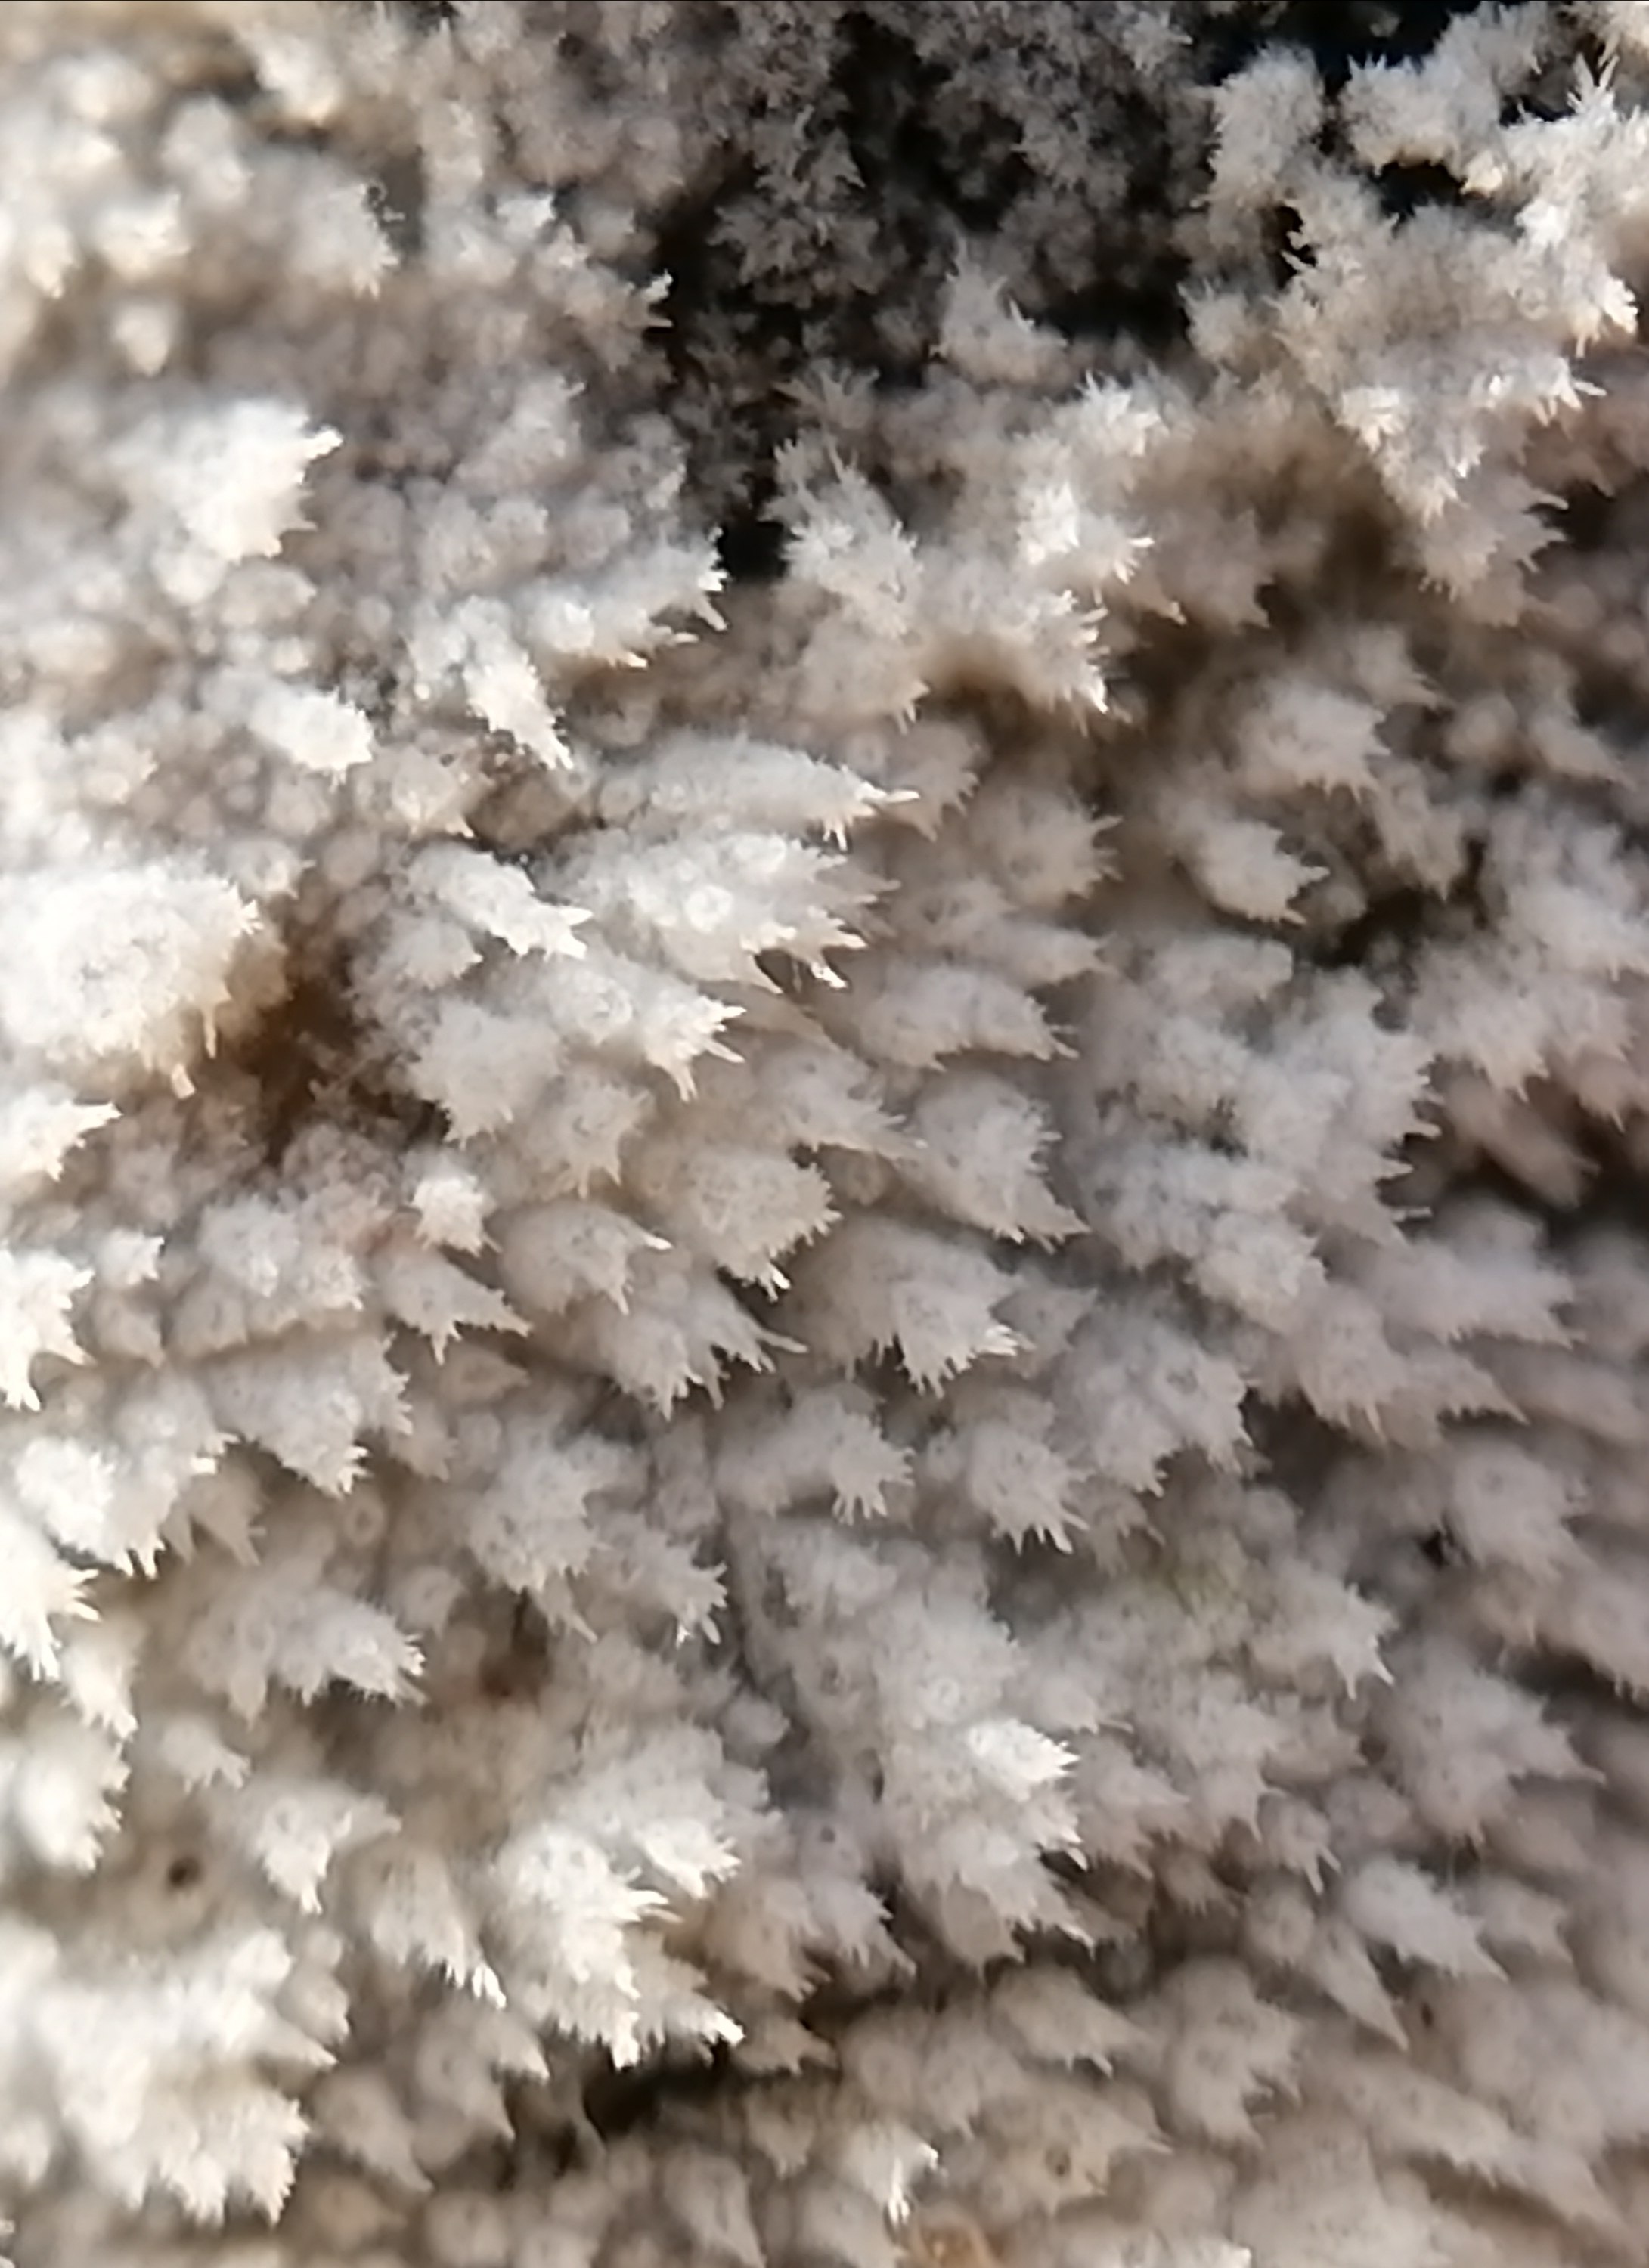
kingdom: Fungi
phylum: Basidiomycota
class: Agaricomycetes
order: Corticiales
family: Corticiaceae
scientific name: Corticiaceae
